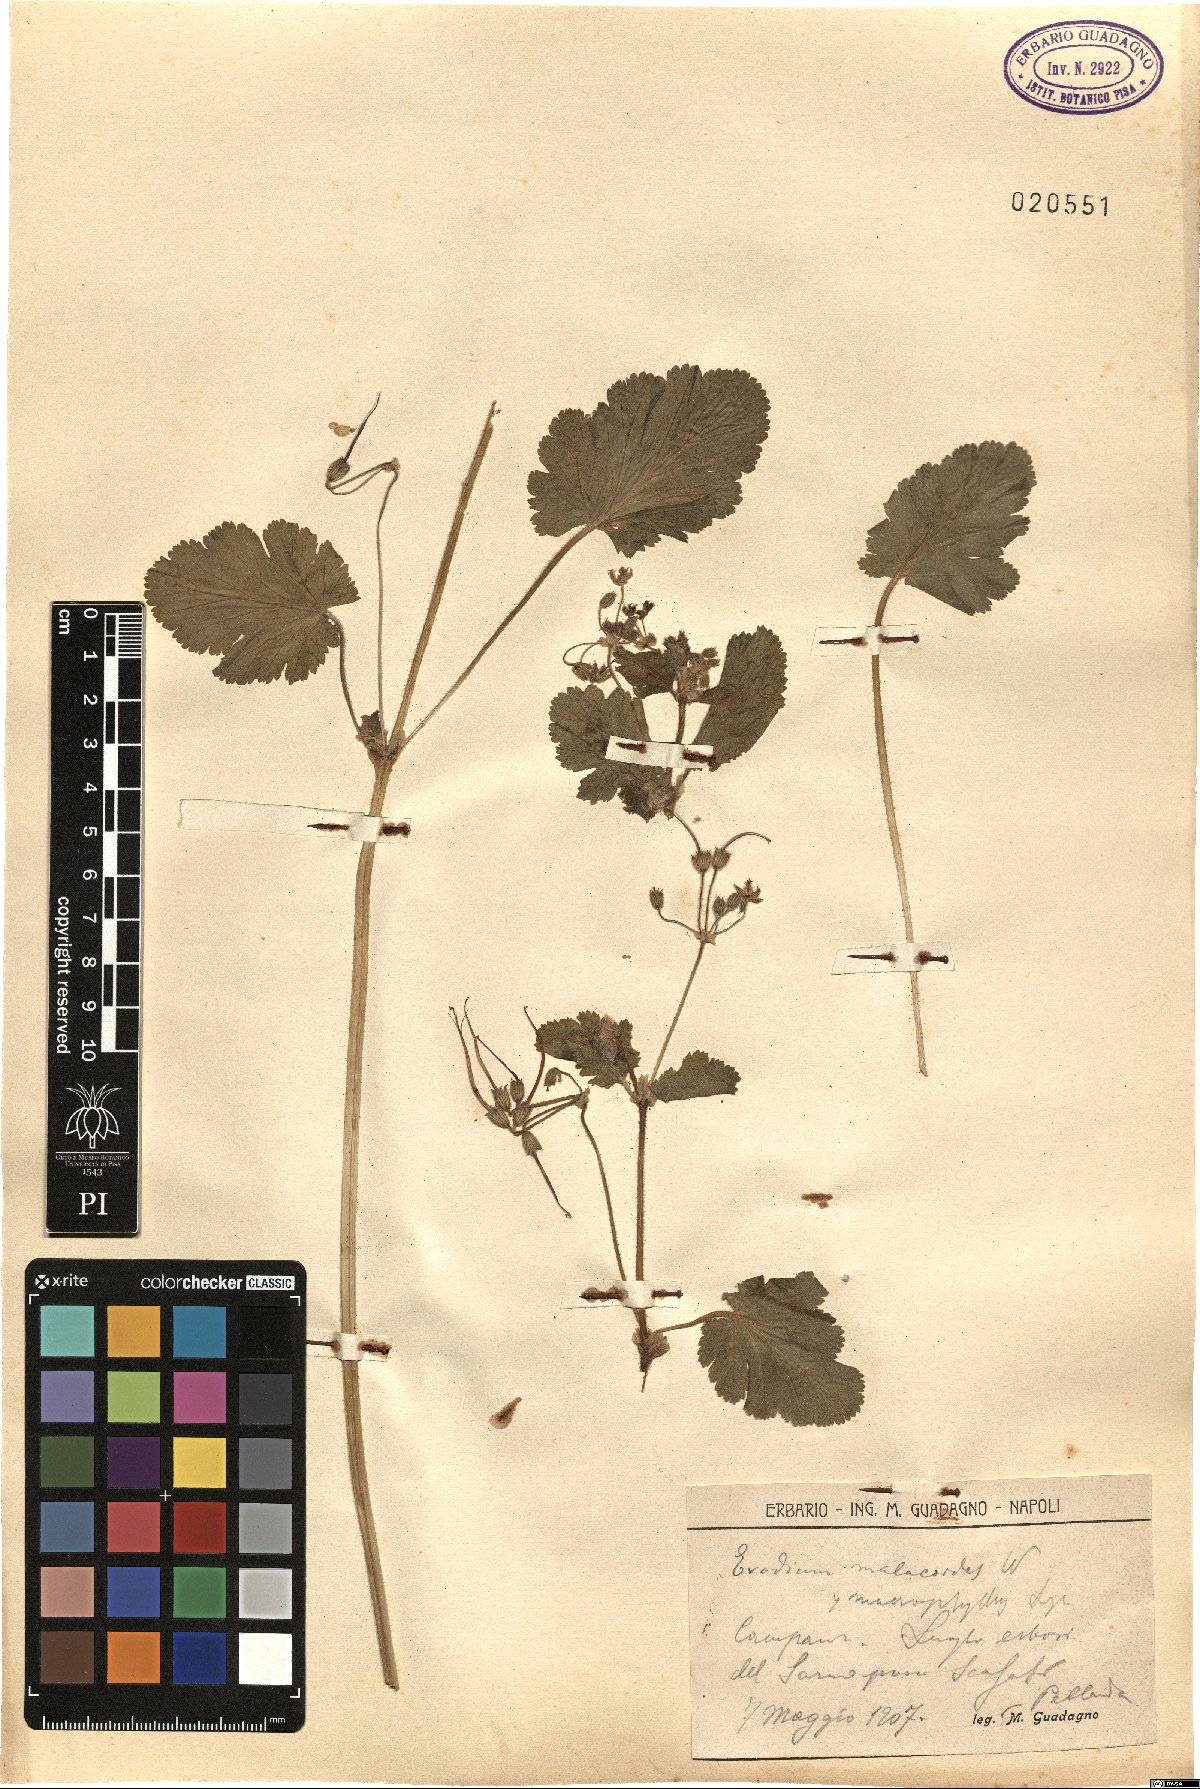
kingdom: Plantae
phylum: Tracheophyta
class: Magnoliopsida
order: Geraniales
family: Geraniaceae
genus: Erodium
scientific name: Erodium malacoides
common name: Soft stork's-bill
